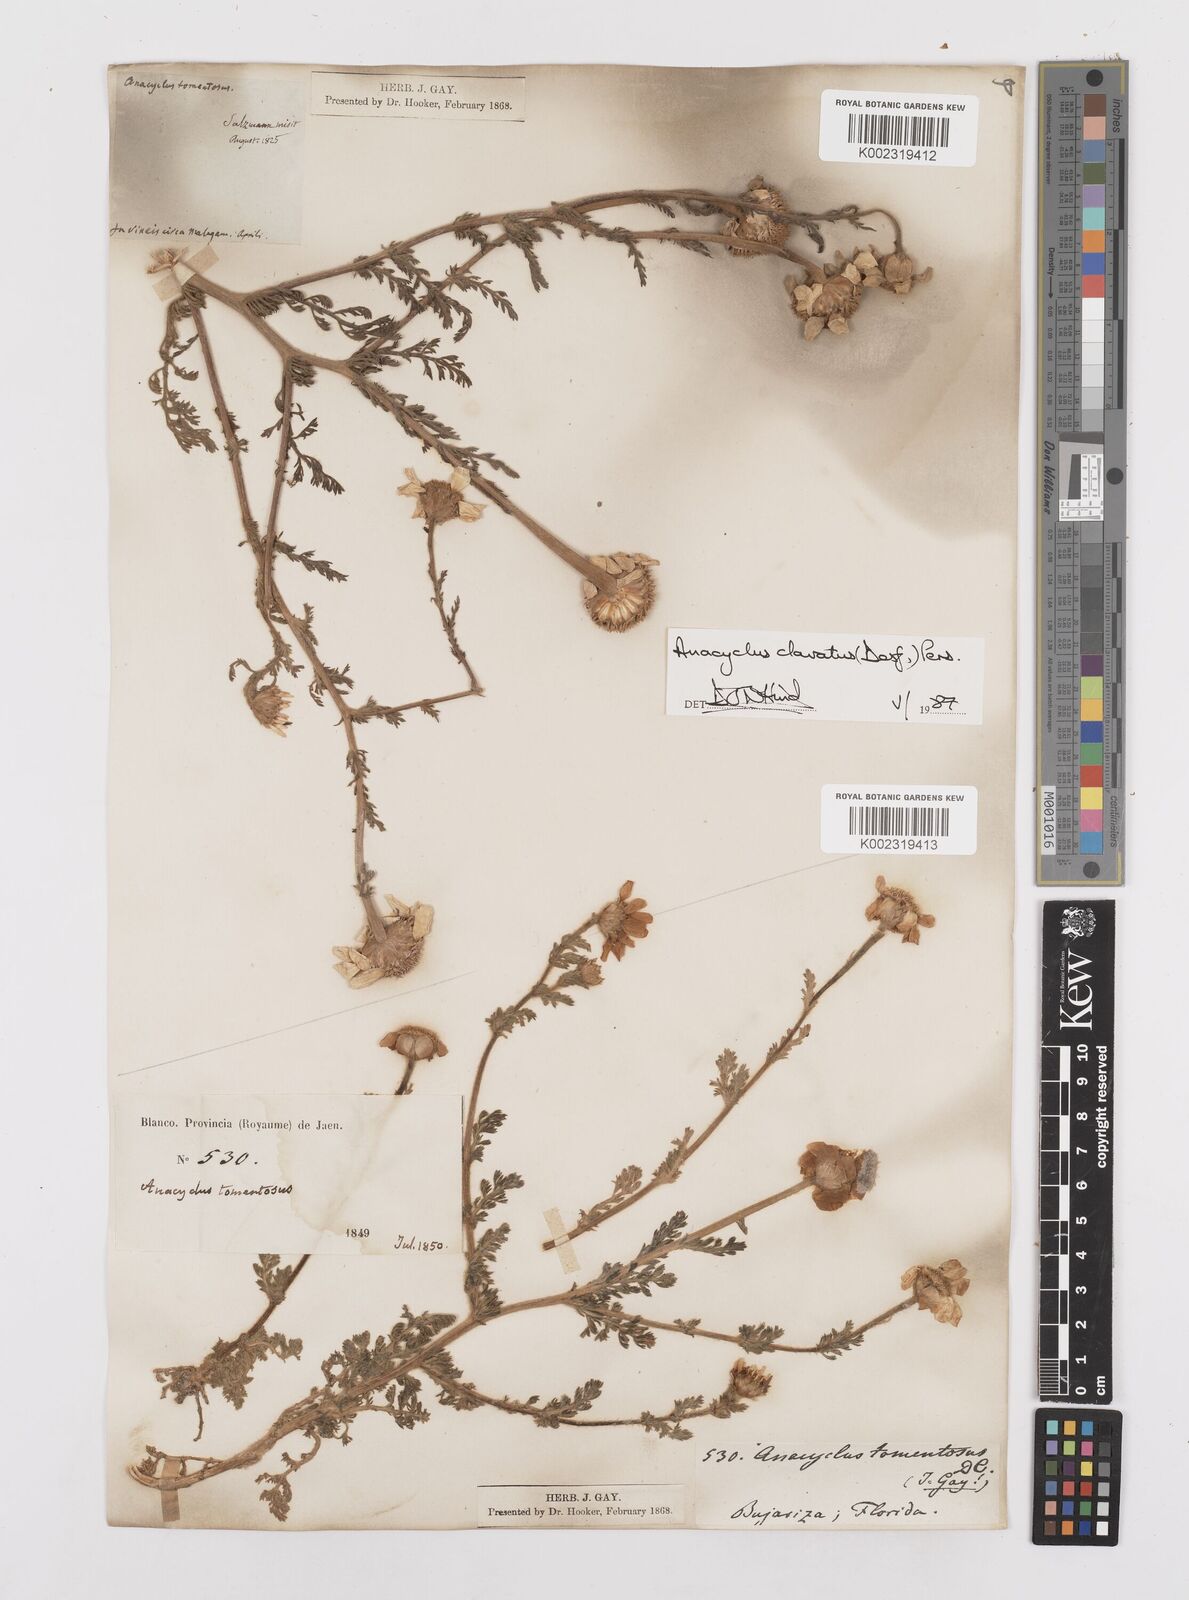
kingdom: Plantae
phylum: Tracheophyta
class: Magnoliopsida
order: Asterales
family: Asteraceae
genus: Anacyclus
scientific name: Anacyclus clavatus
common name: Whitebuttons
